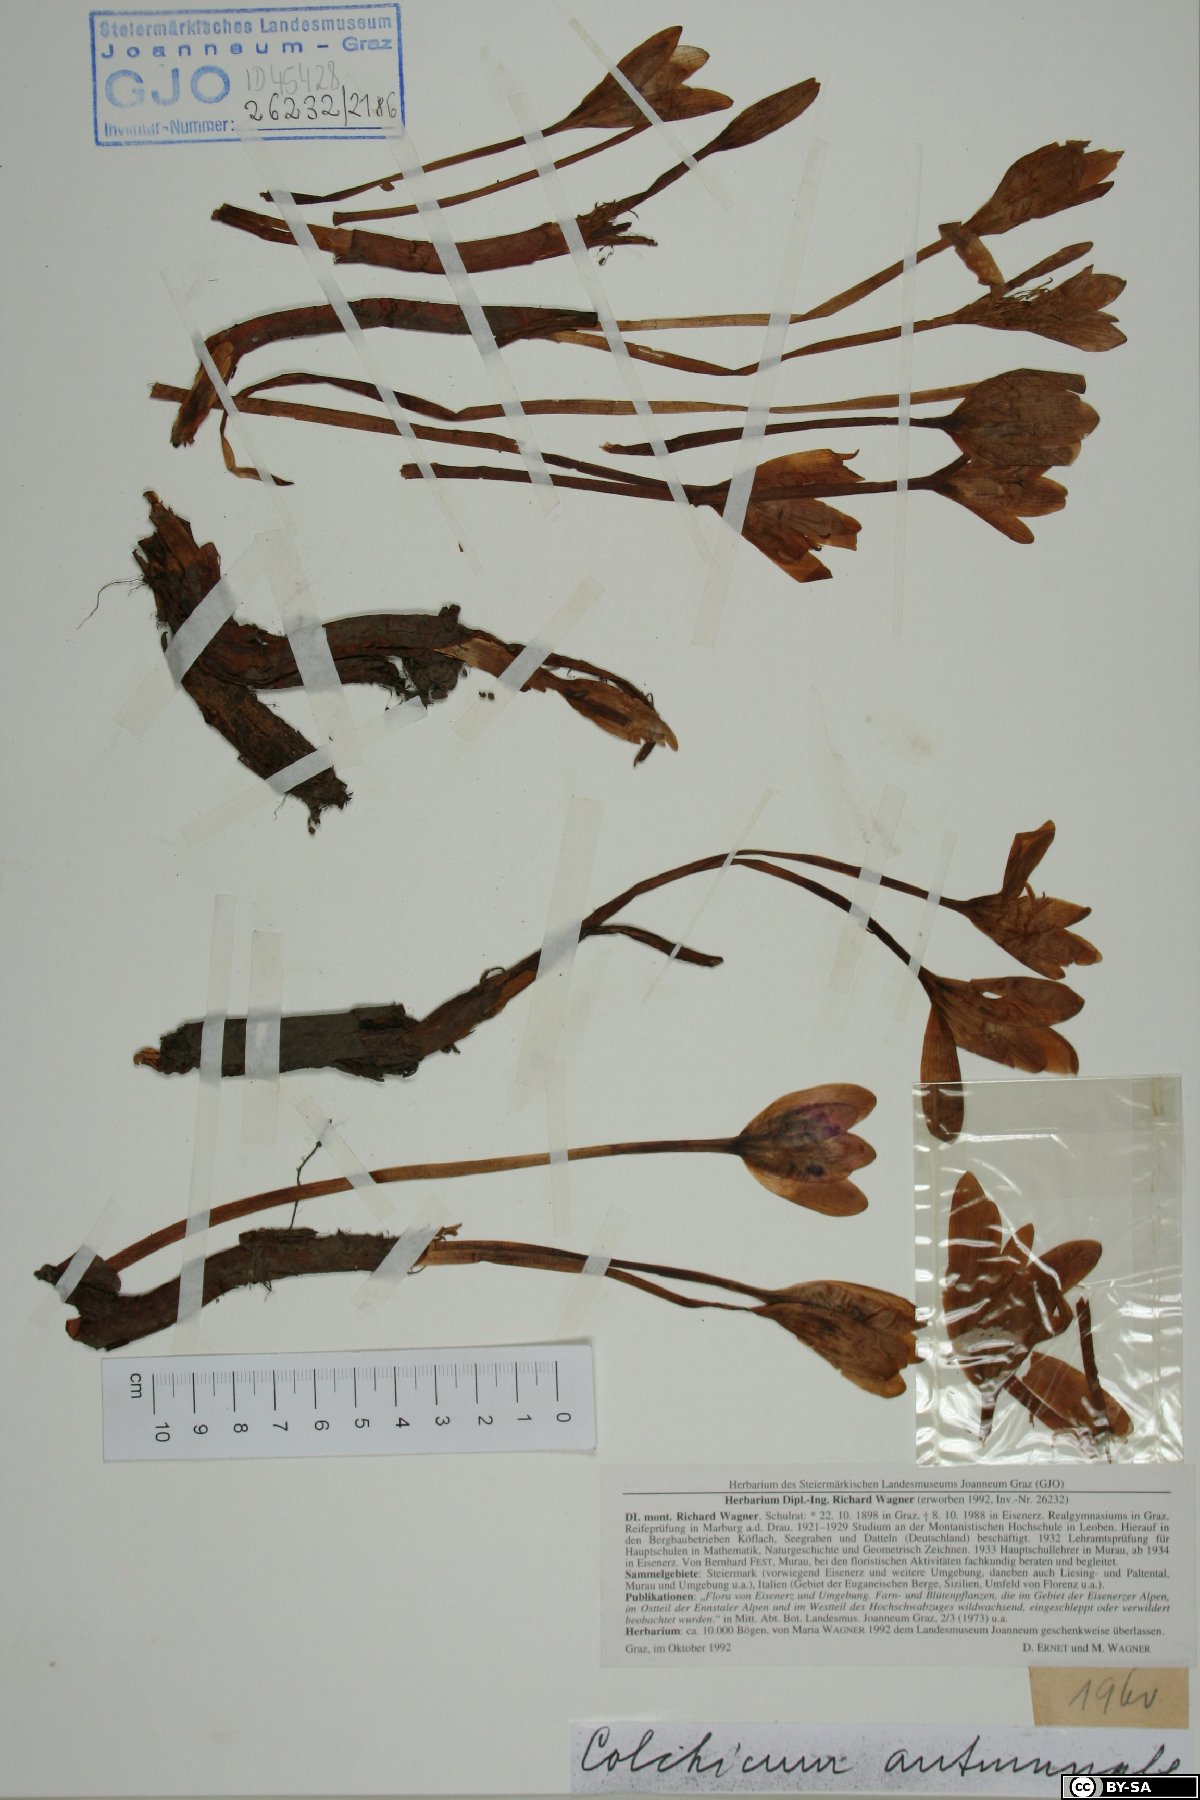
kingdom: Plantae
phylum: Tracheophyta
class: Liliopsida
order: Liliales
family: Colchicaceae
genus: Colchicum
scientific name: Colchicum autumnale
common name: Autumn crocus
